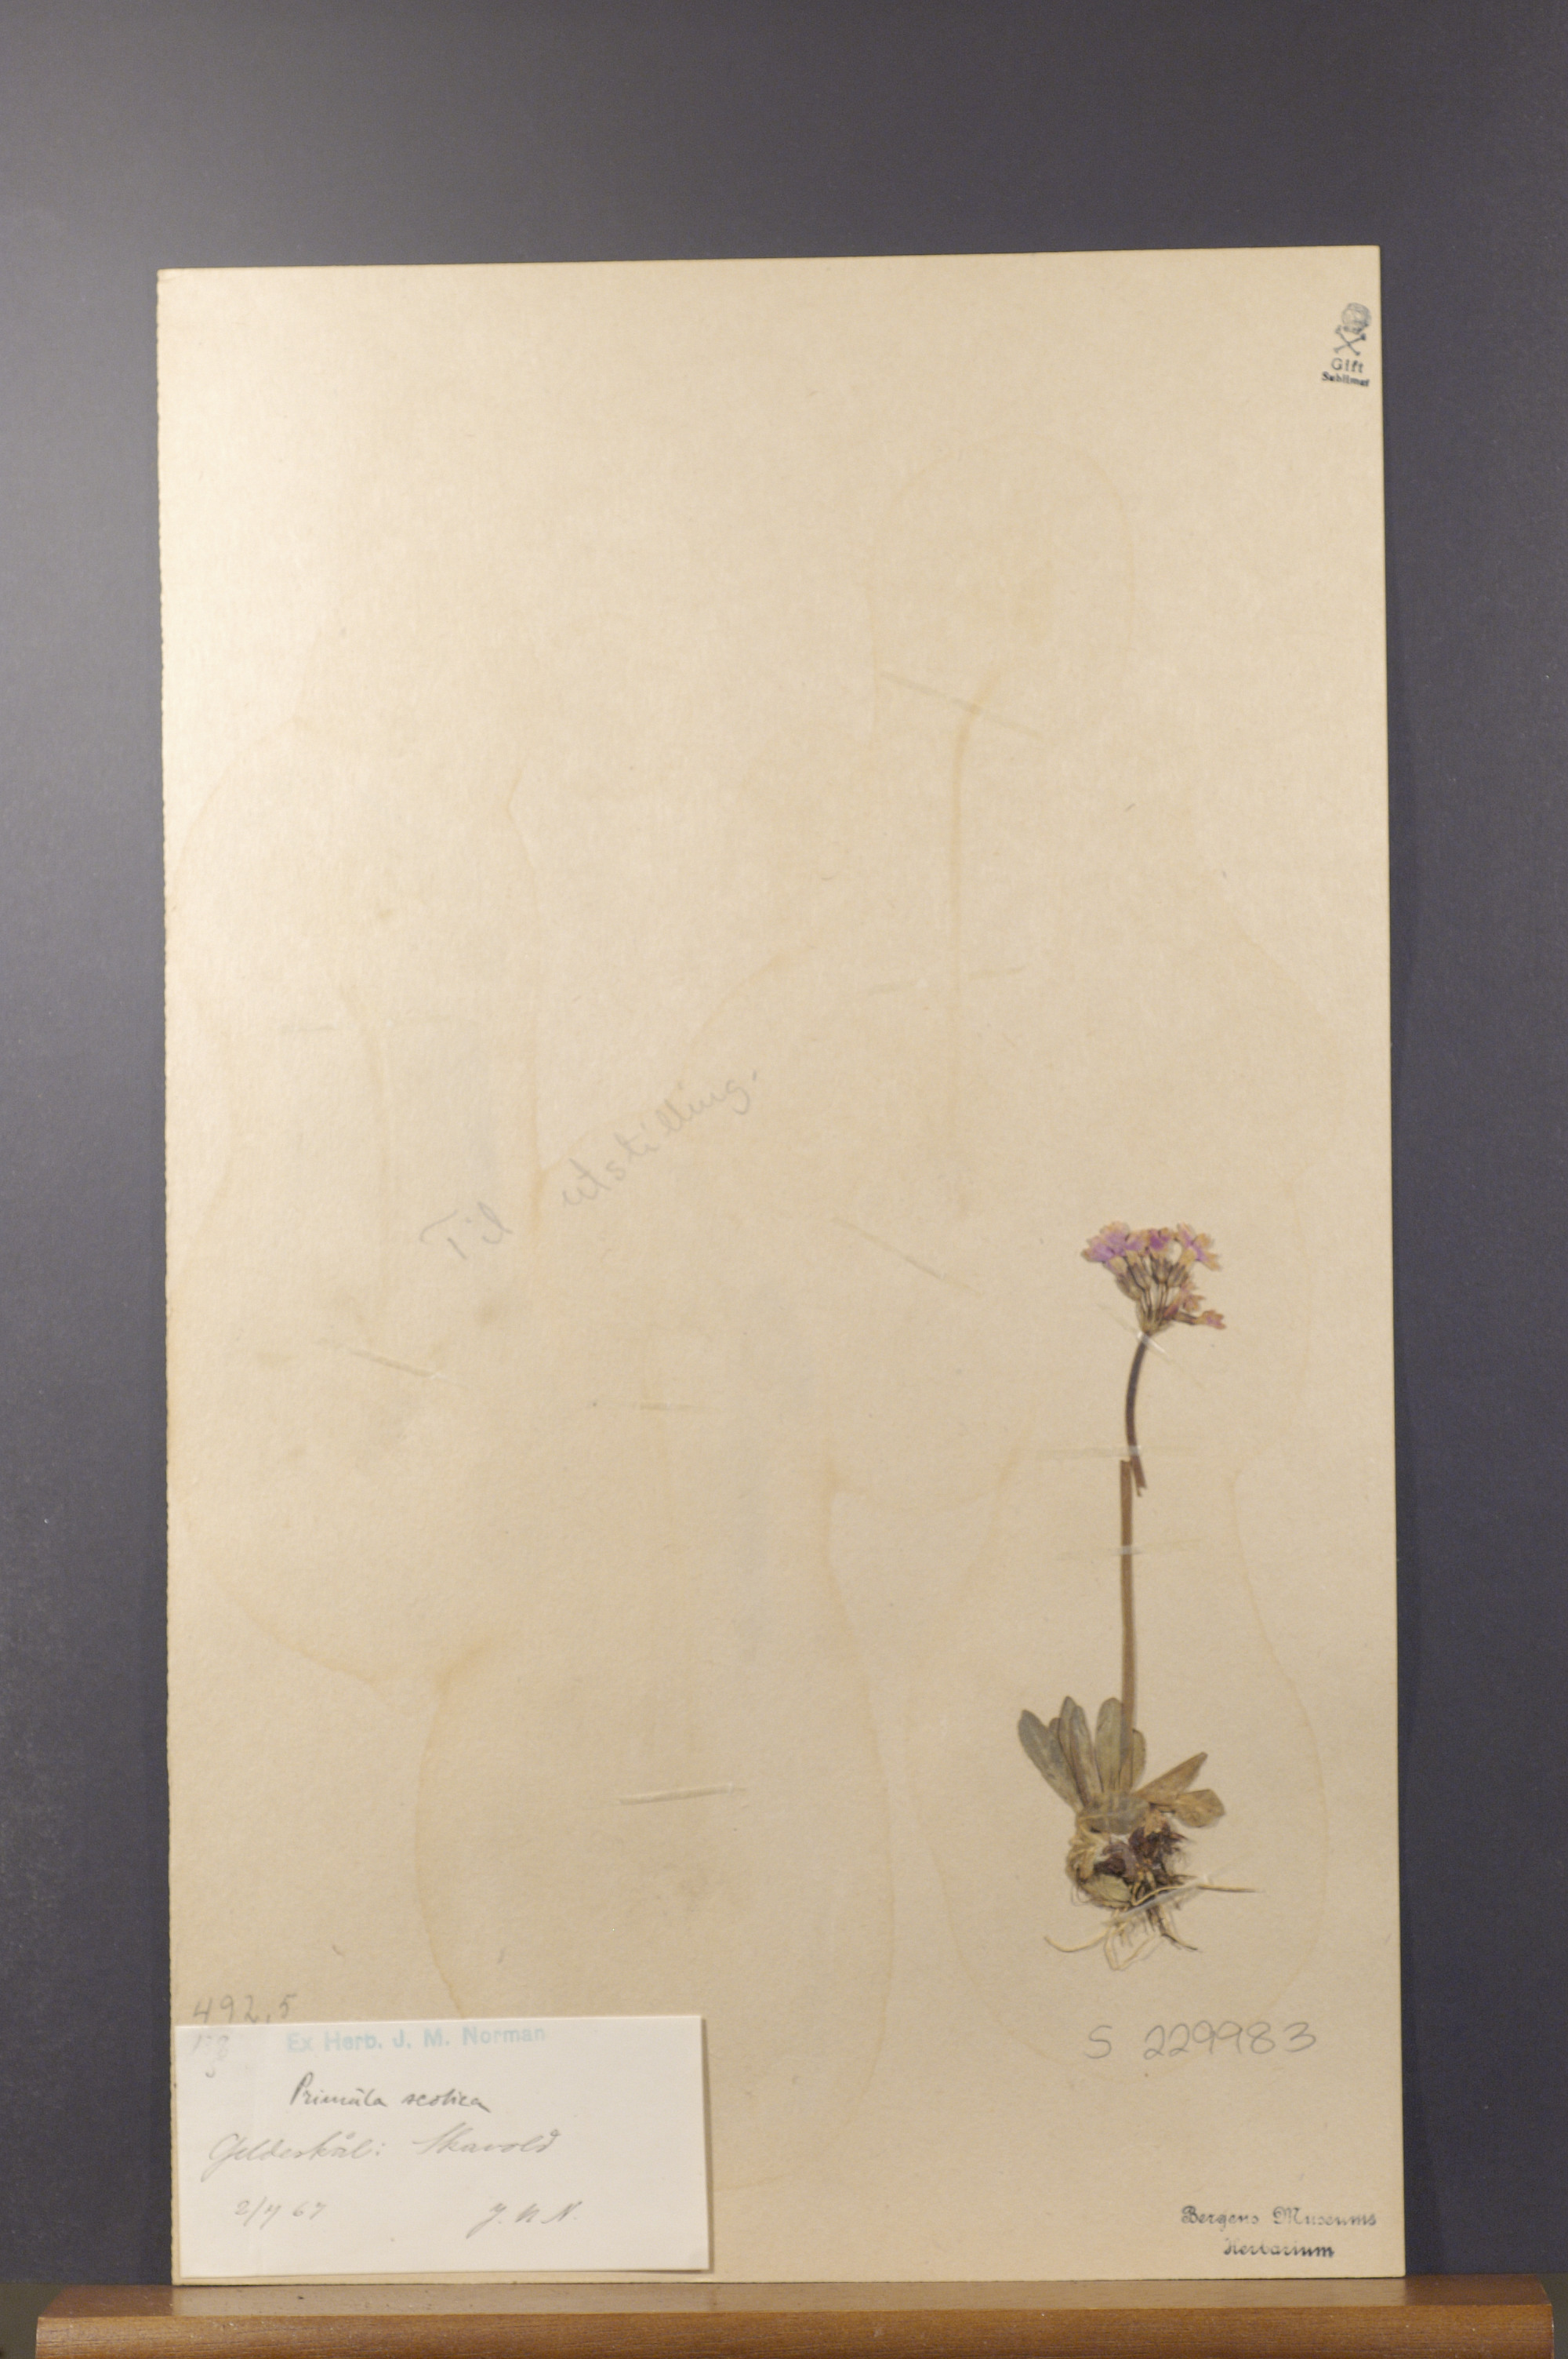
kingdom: Plantae
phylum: Tracheophyta
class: Magnoliopsida
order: Ericales
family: Primulaceae
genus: Primula
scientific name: Primula scandinavica
